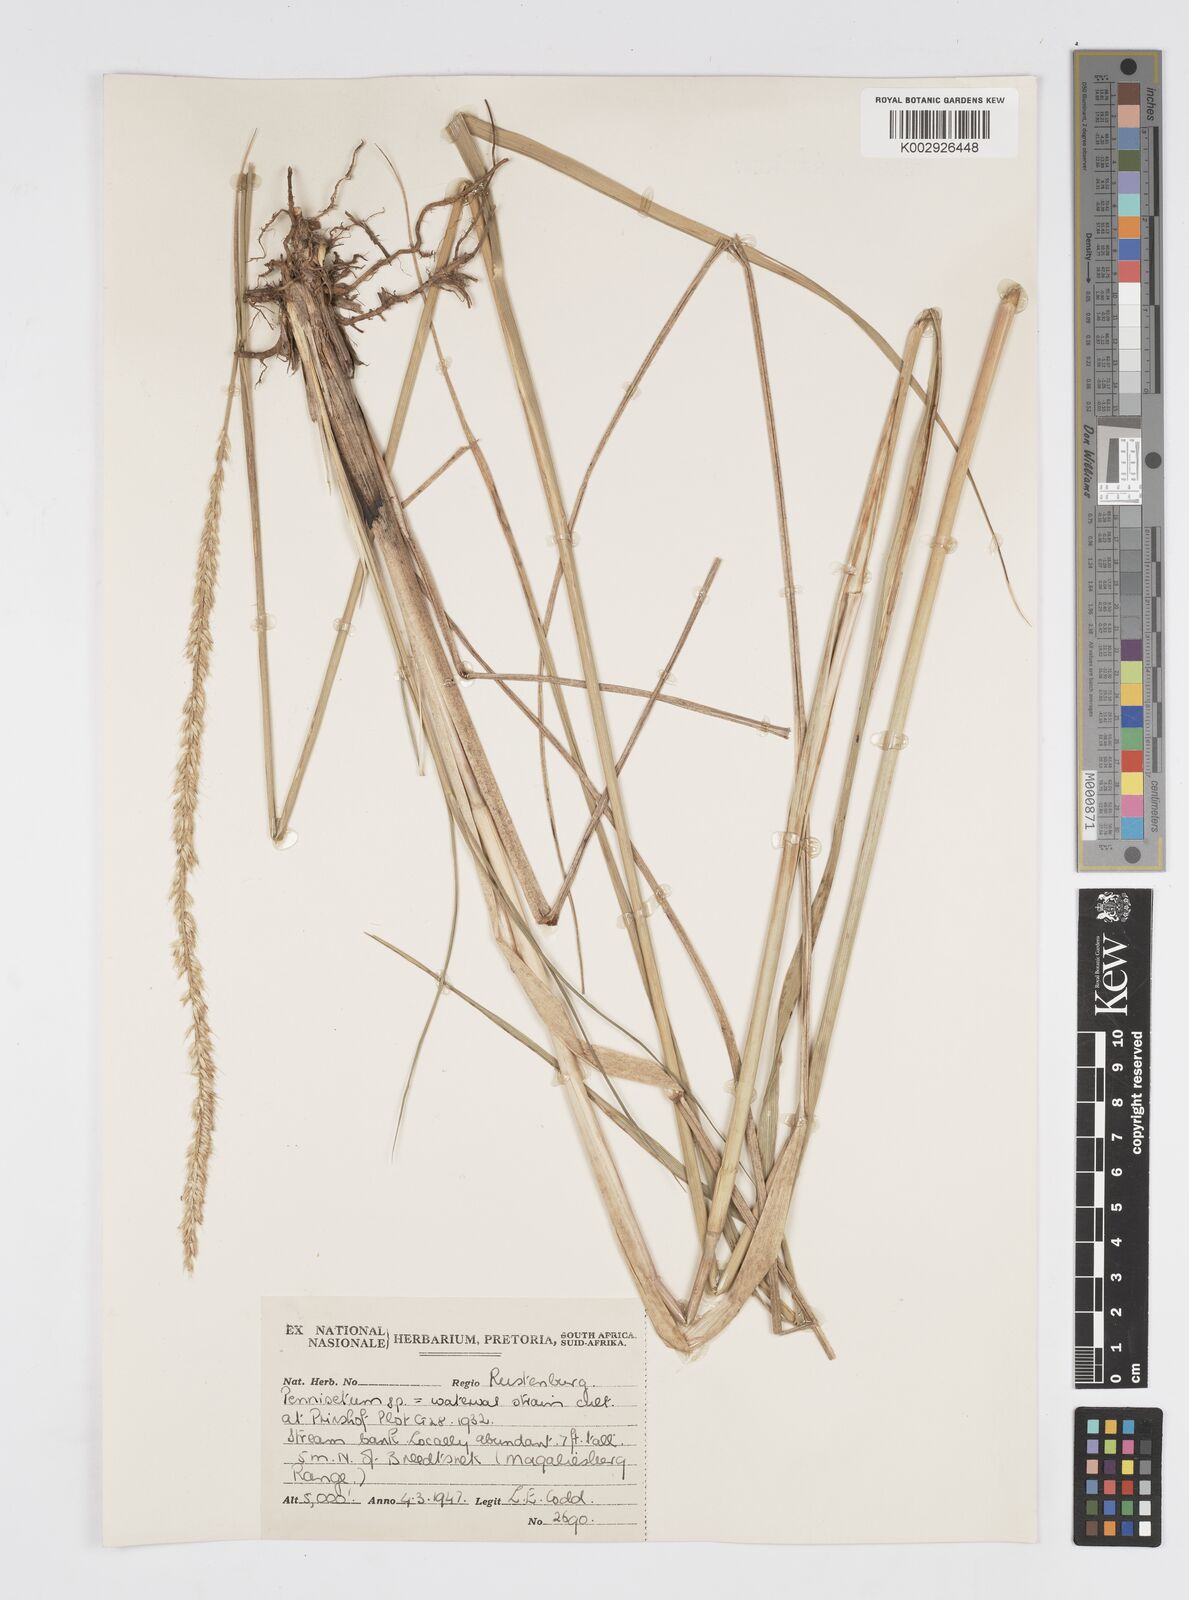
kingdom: Plantae
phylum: Tracheophyta
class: Liliopsida
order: Poales
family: Poaceae
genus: Cenchrus
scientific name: Cenchrus caudatus
